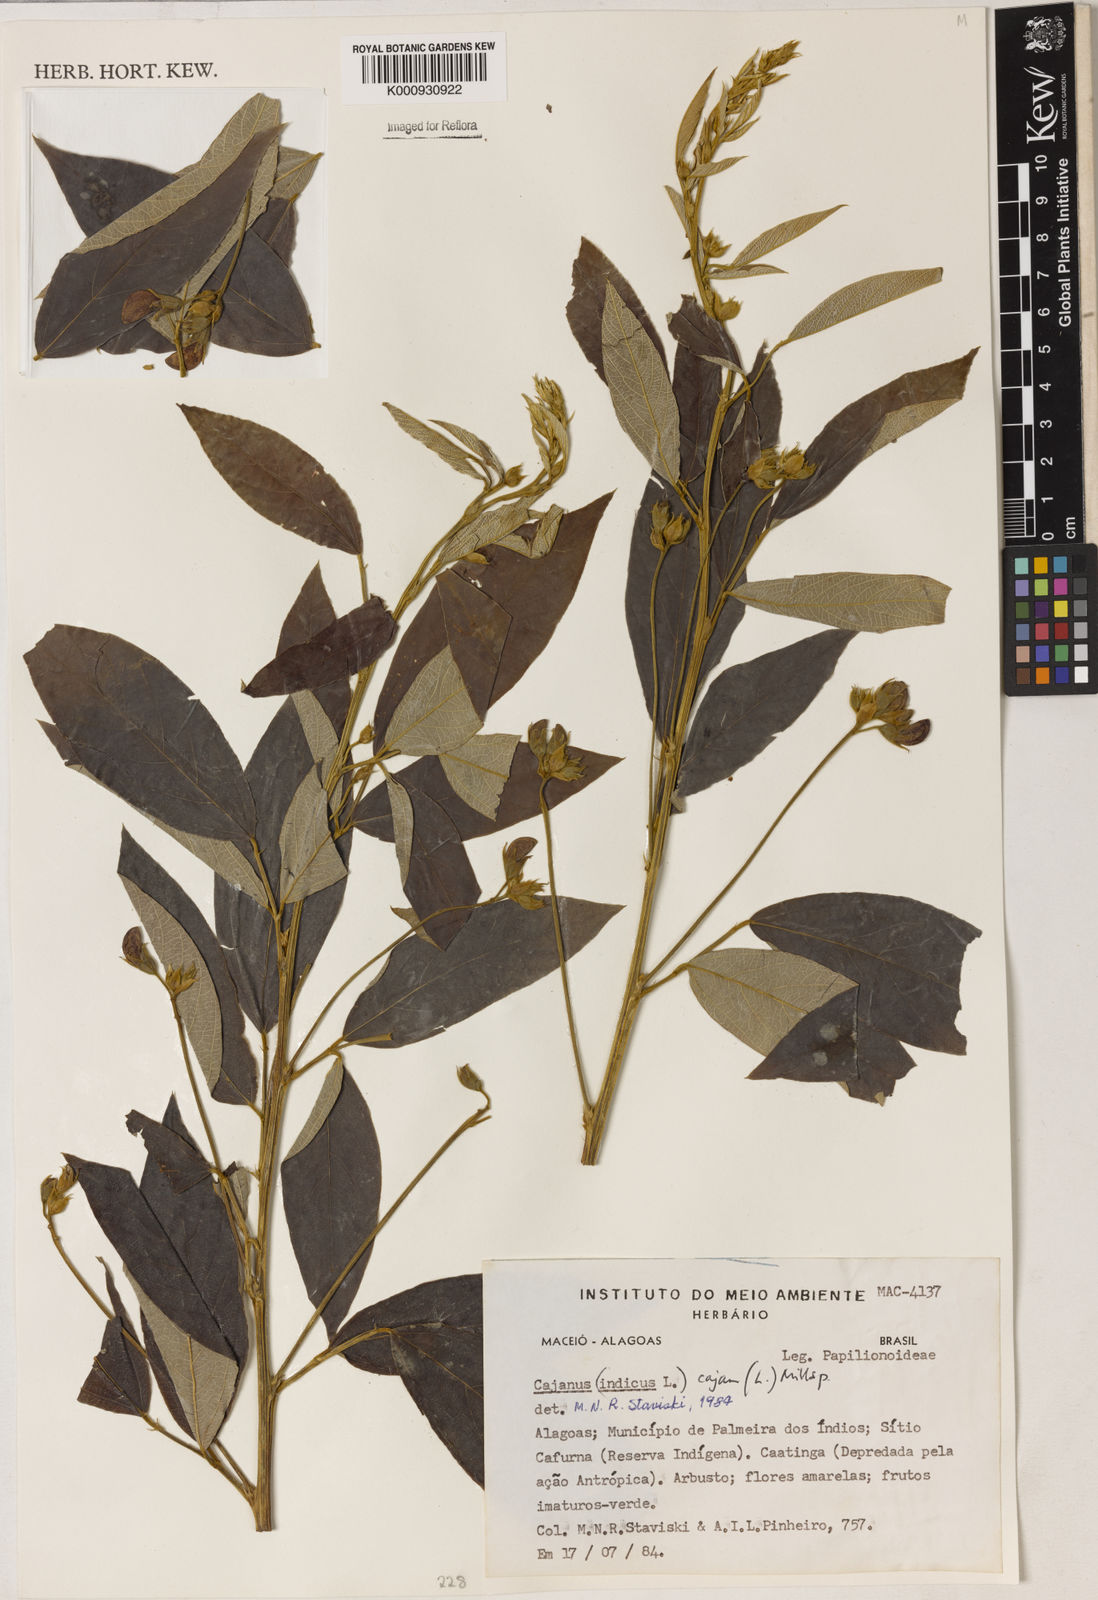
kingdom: Plantae
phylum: Tracheophyta
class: Magnoliopsida
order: Fabales
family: Fabaceae
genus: Cajanus
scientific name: Cajanus
